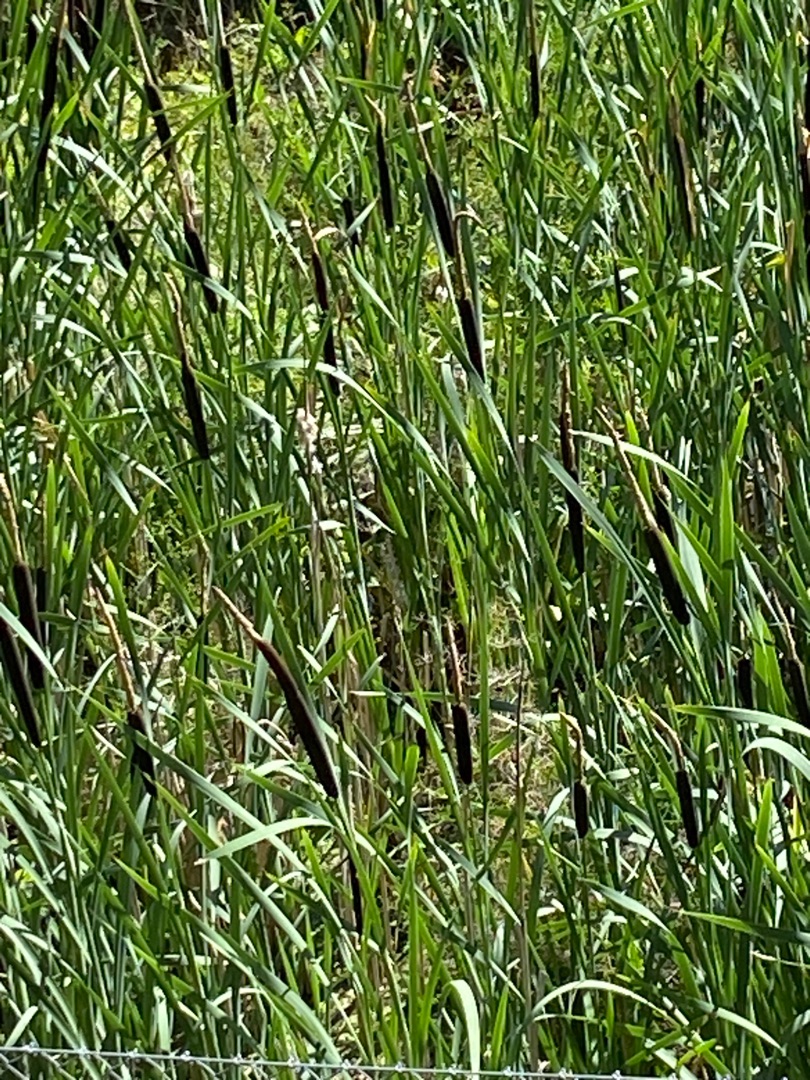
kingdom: Plantae
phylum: Tracheophyta
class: Liliopsida
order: Poales
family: Typhaceae
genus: Typha
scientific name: Typha latifolia
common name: Bredbladet dunhammer
